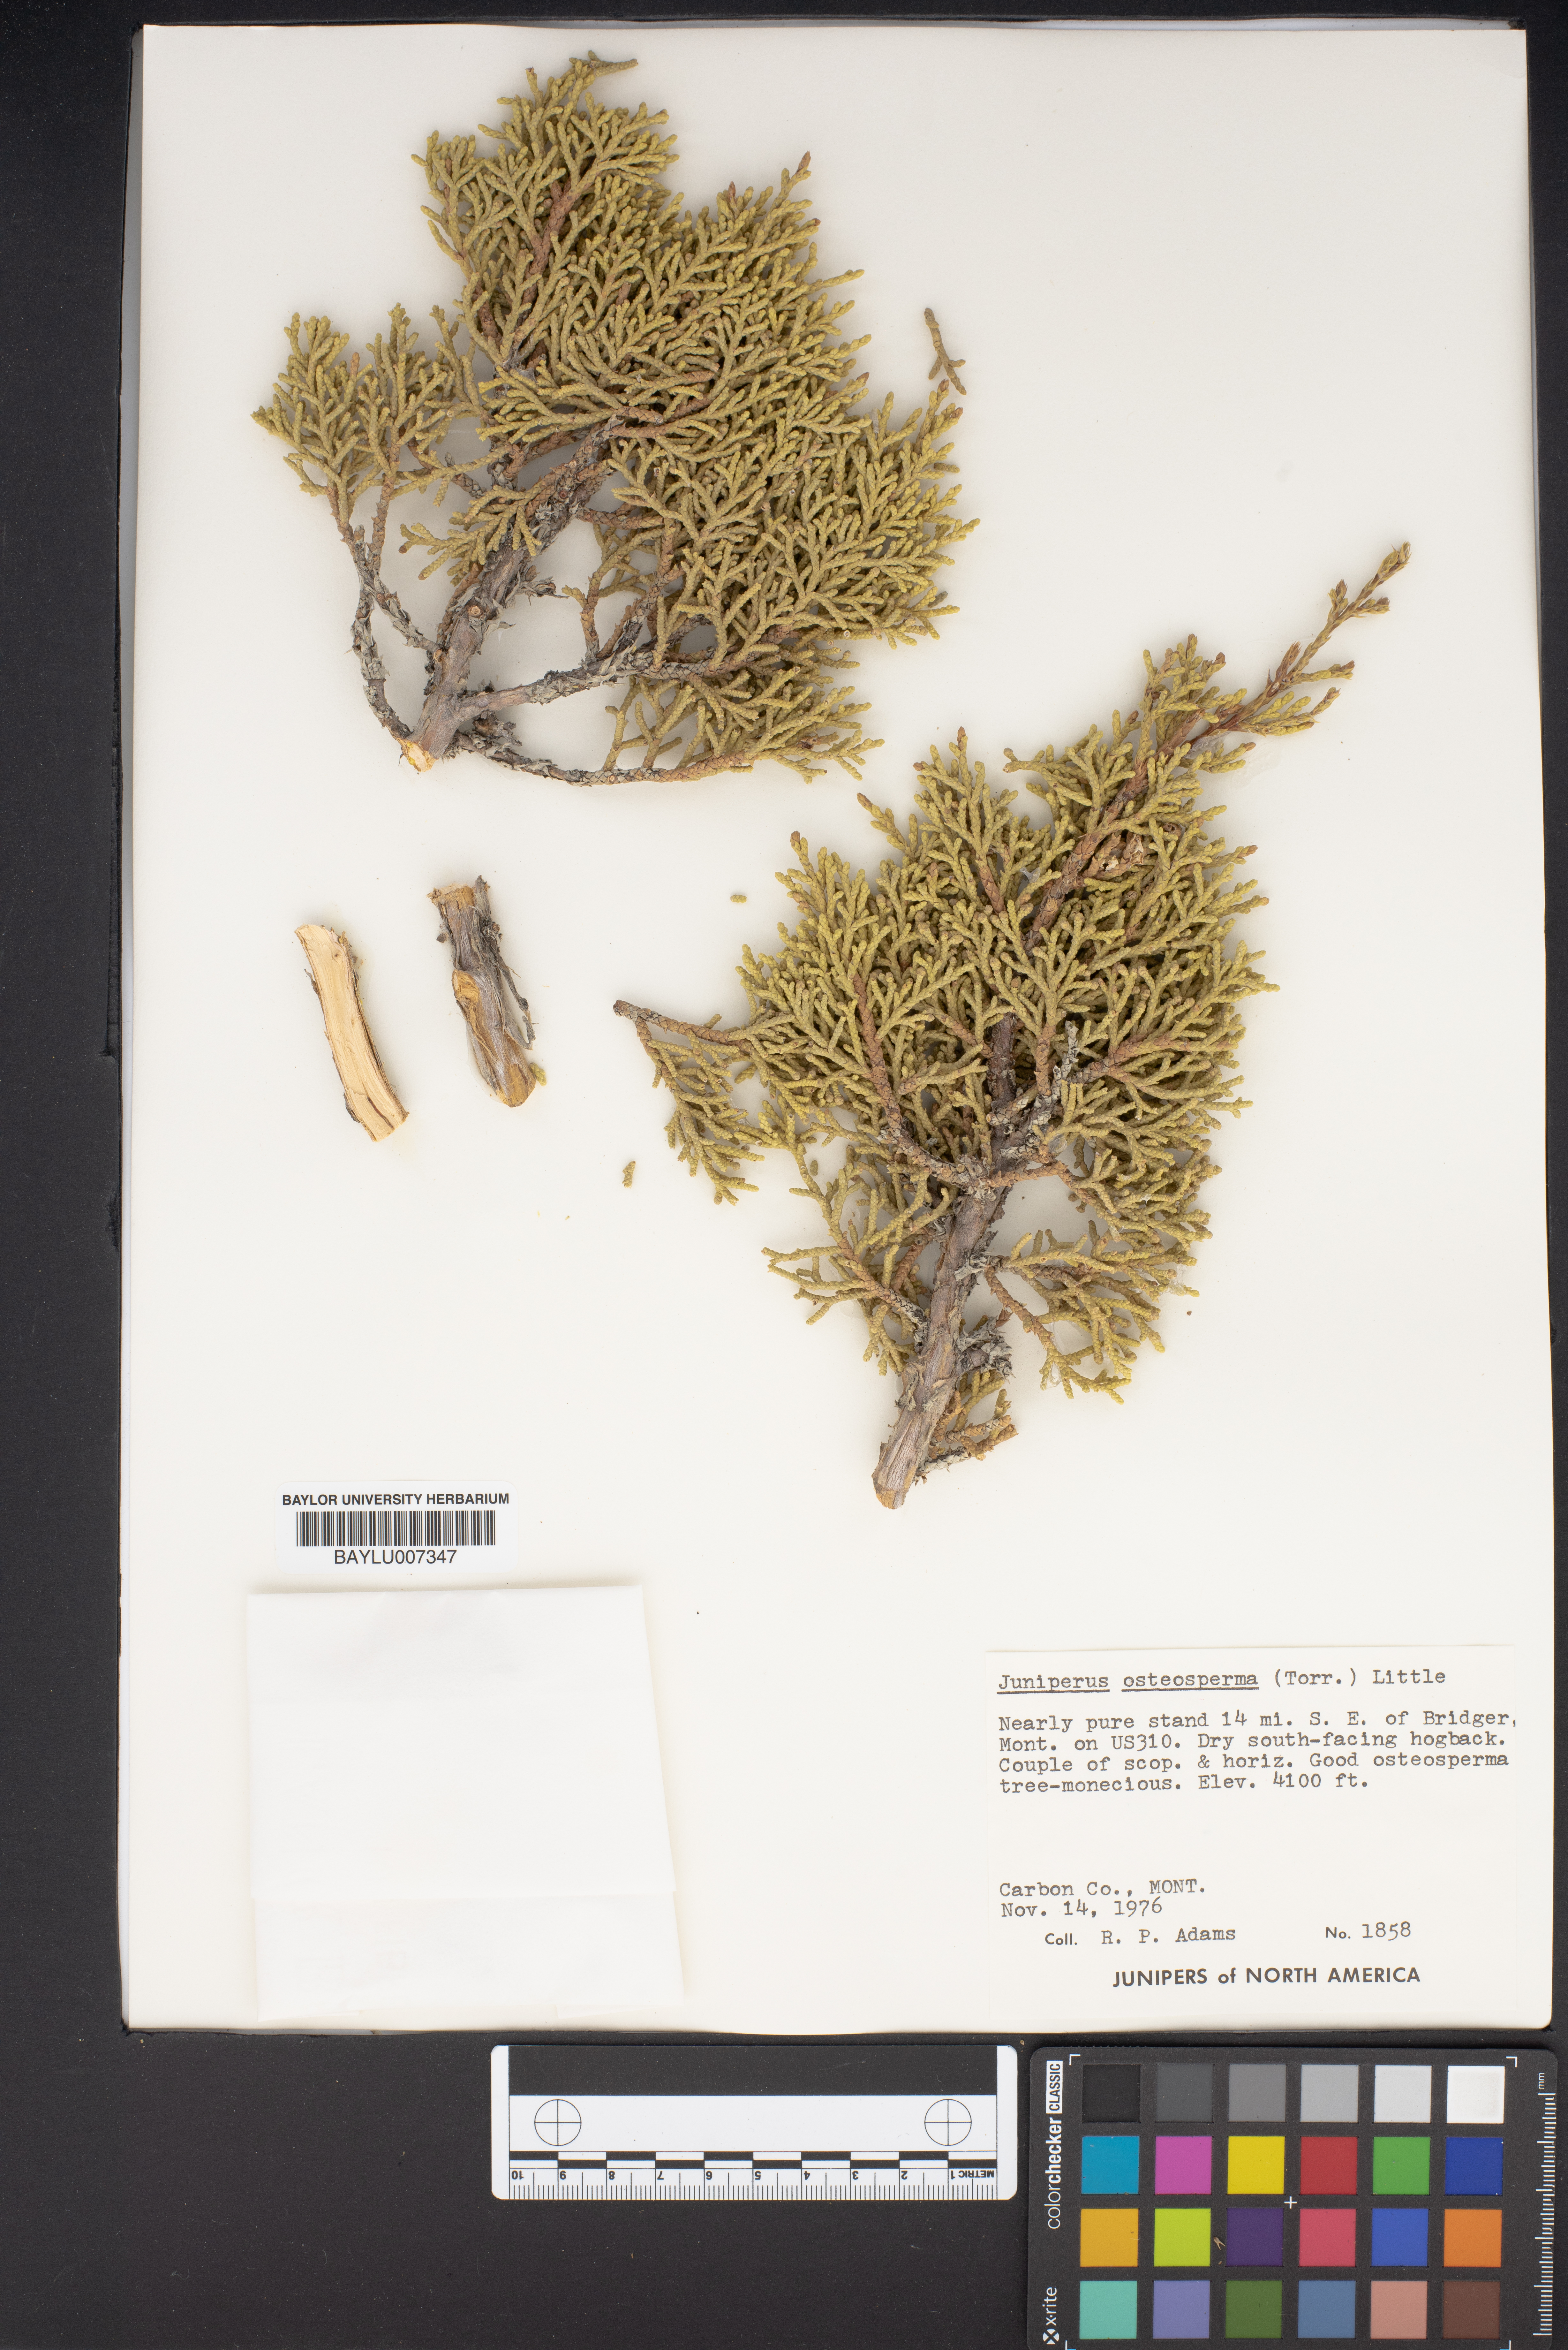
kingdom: Plantae
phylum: Tracheophyta
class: Pinopsida
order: Pinales
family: Cupressaceae
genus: Juniperus
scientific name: Juniperus osteosperma
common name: Utah juniper
